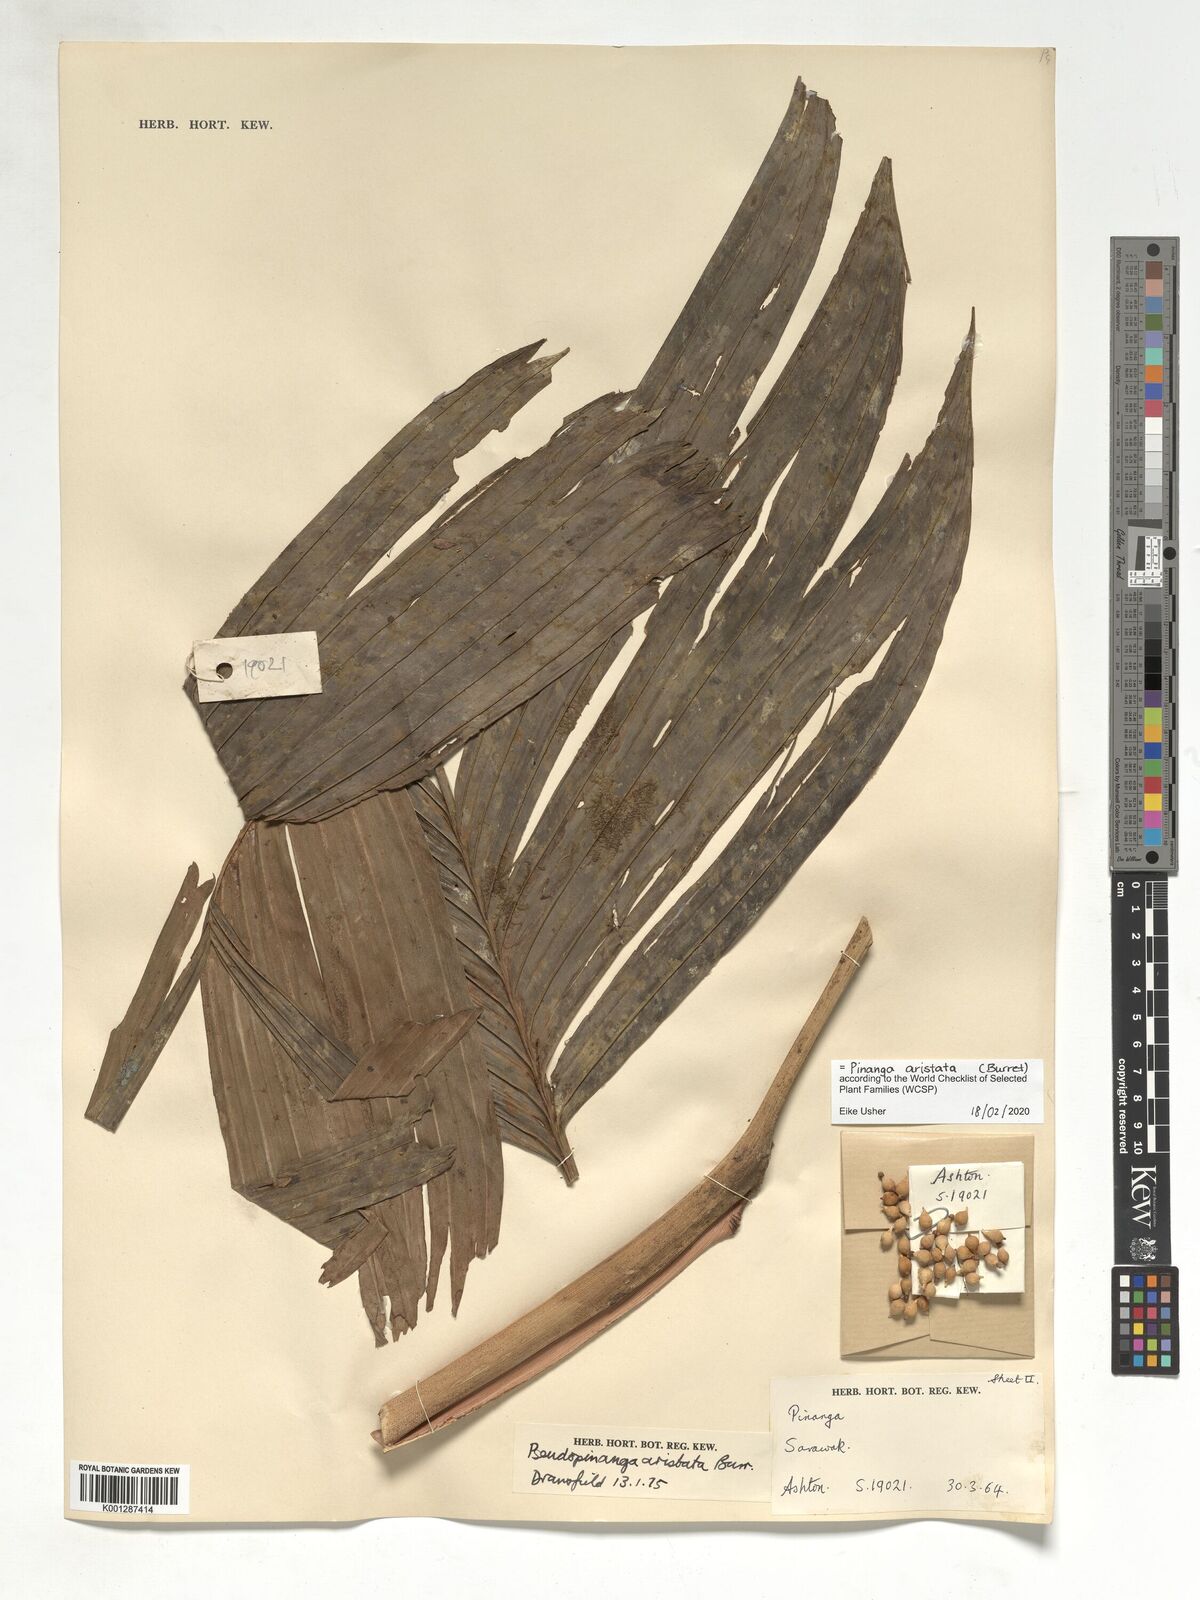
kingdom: Plantae
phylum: Tracheophyta
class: Liliopsida
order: Arecales
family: Arecaceae
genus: Pinanga
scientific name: Pinanga aristata
